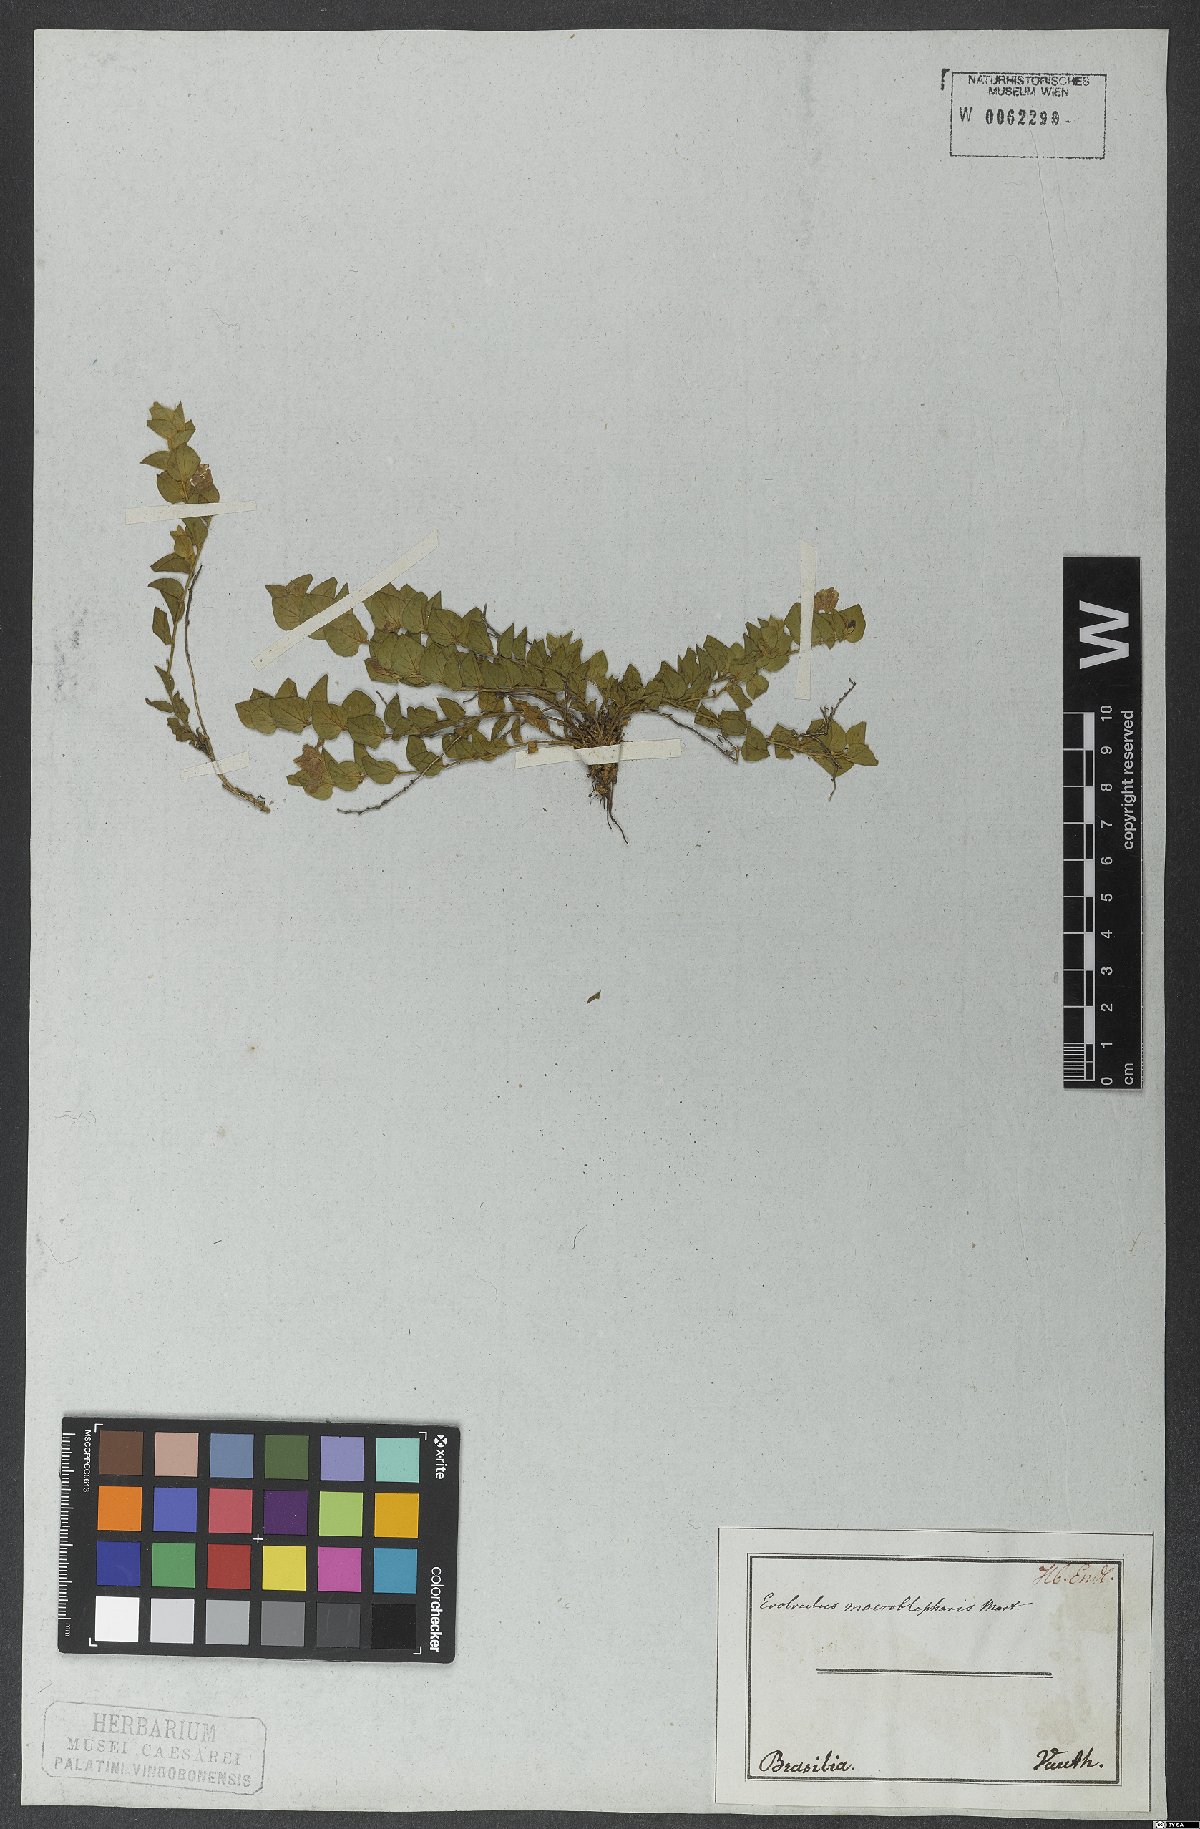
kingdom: Plantae
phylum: Tracheophyta
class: Magnoliopsida
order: Solanales
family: Convolvulaceae
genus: Evolvulus
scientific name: Evolvulus macroblepharis
